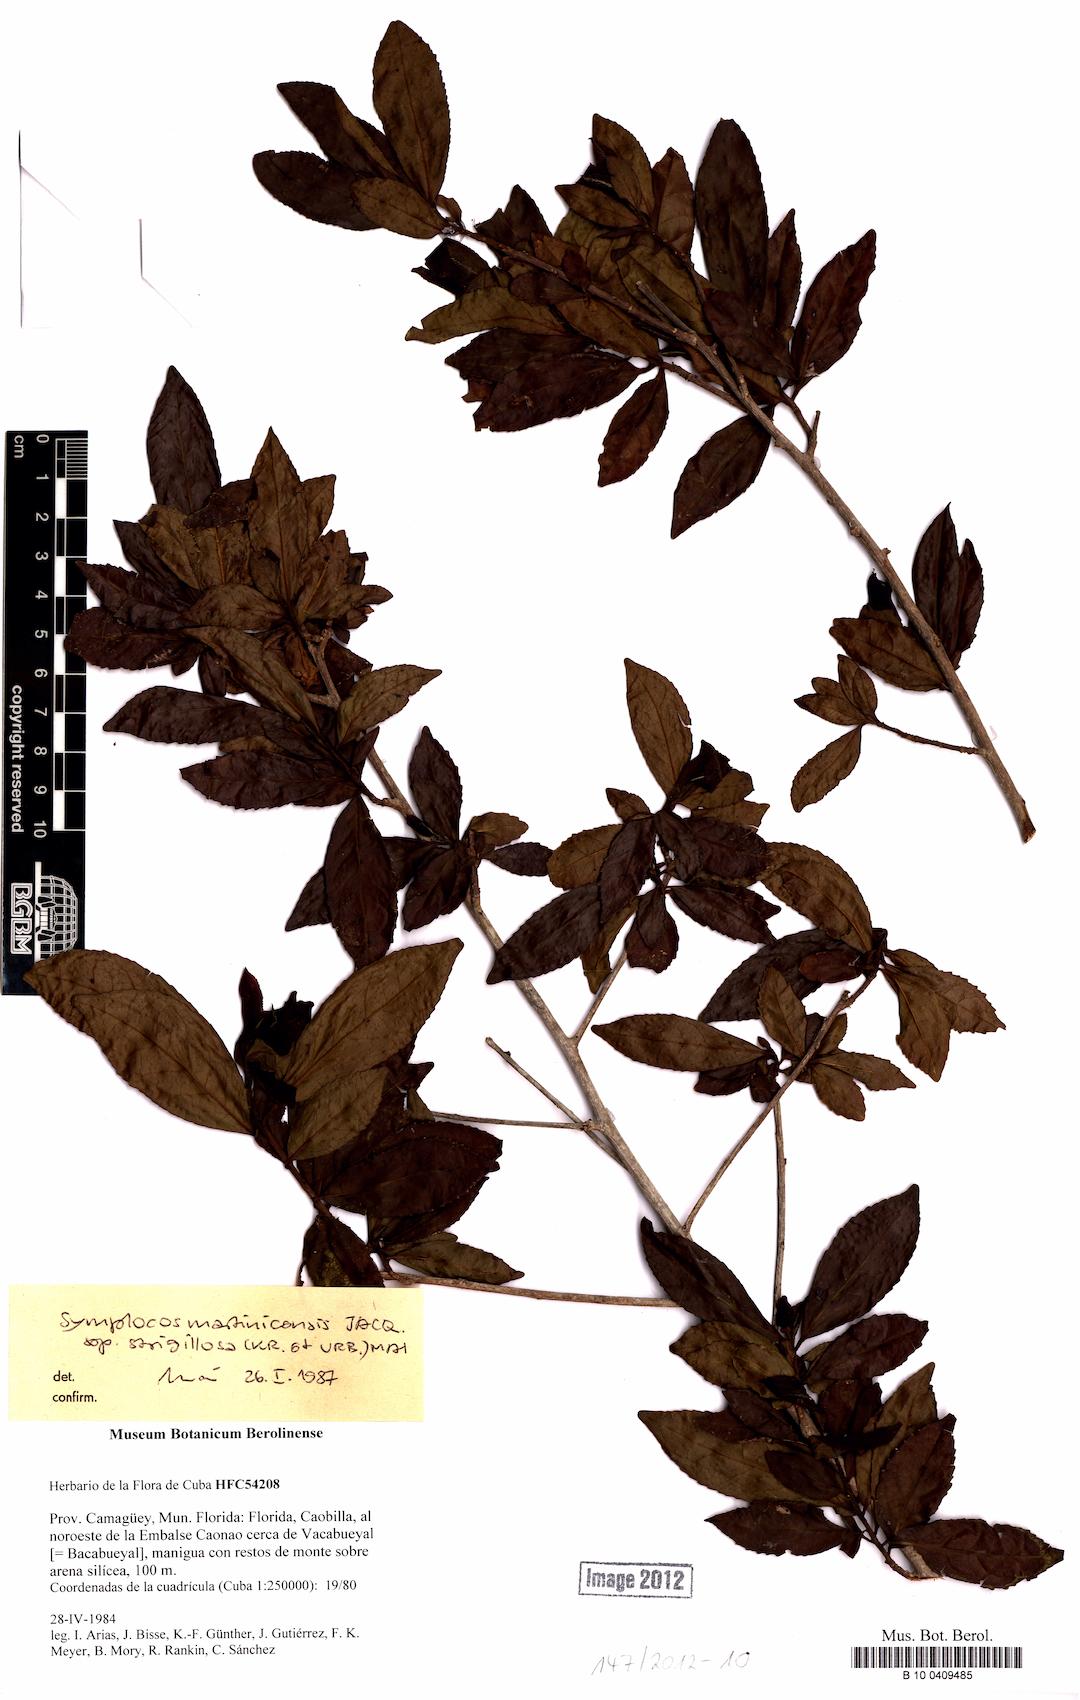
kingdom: Plantae
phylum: Tracheophyta
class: Magnoliopsida
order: Ericales
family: Symplocaceae
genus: Symplocos
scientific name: Symplocos jurgensenii
